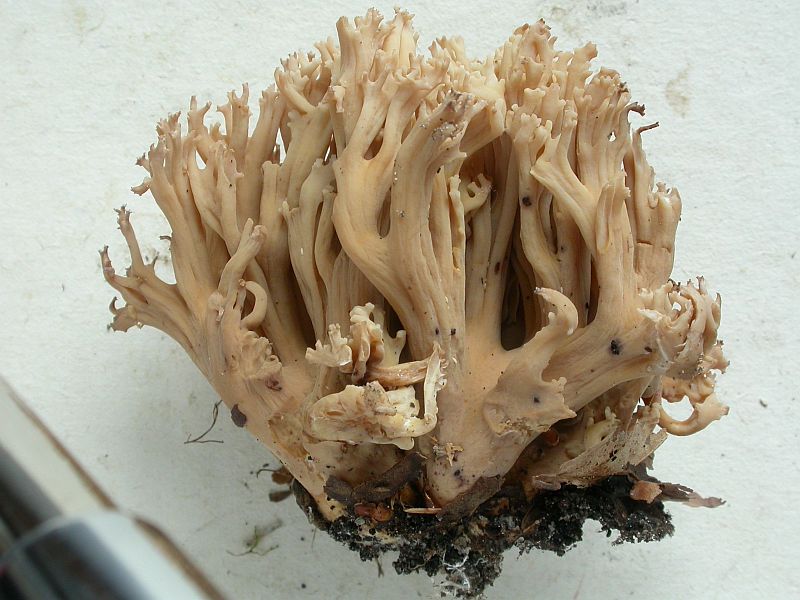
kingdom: Fungi
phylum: Basidiomycota
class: Agaricomycetes
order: Gomphales
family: Gomphaceae
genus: Ramaria
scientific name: Ramaria
